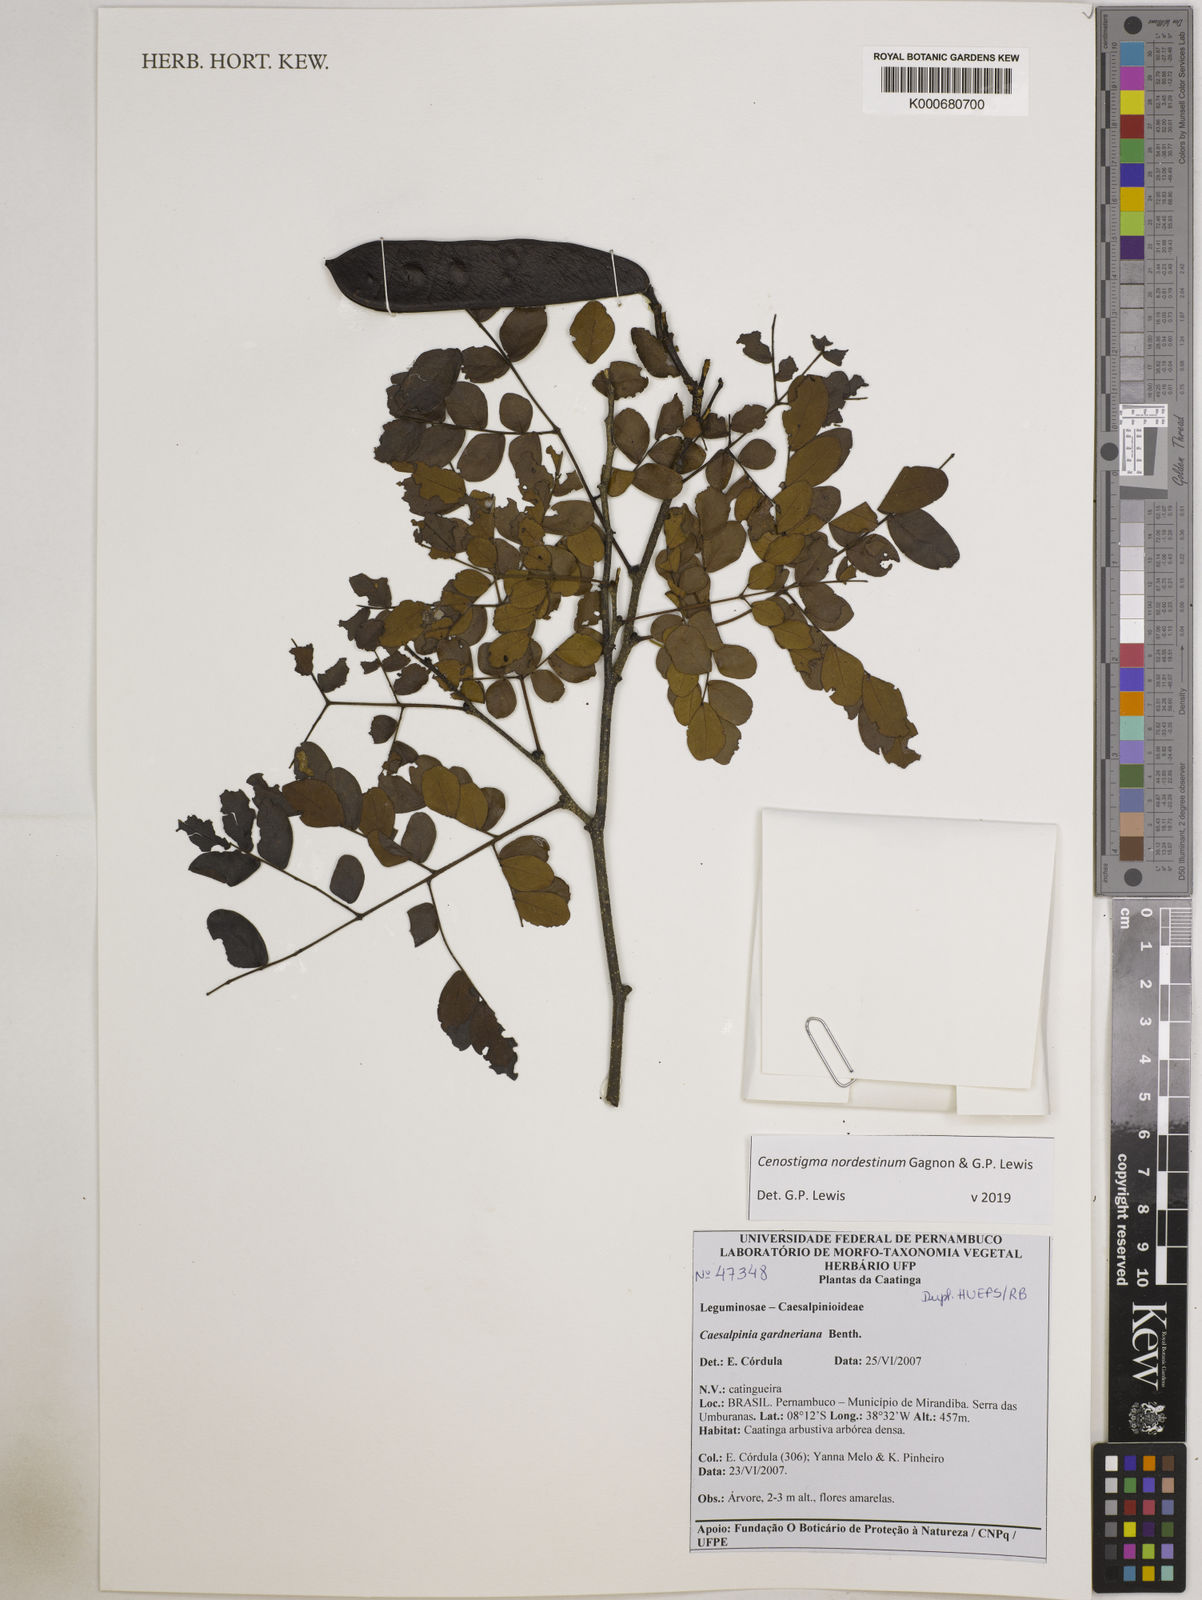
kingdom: Plantae
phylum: Tracheophyta
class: Magnoliopsida
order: Fabales
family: Fabaceae
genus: Cenostigma
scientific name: Cenostigma nordestinum
